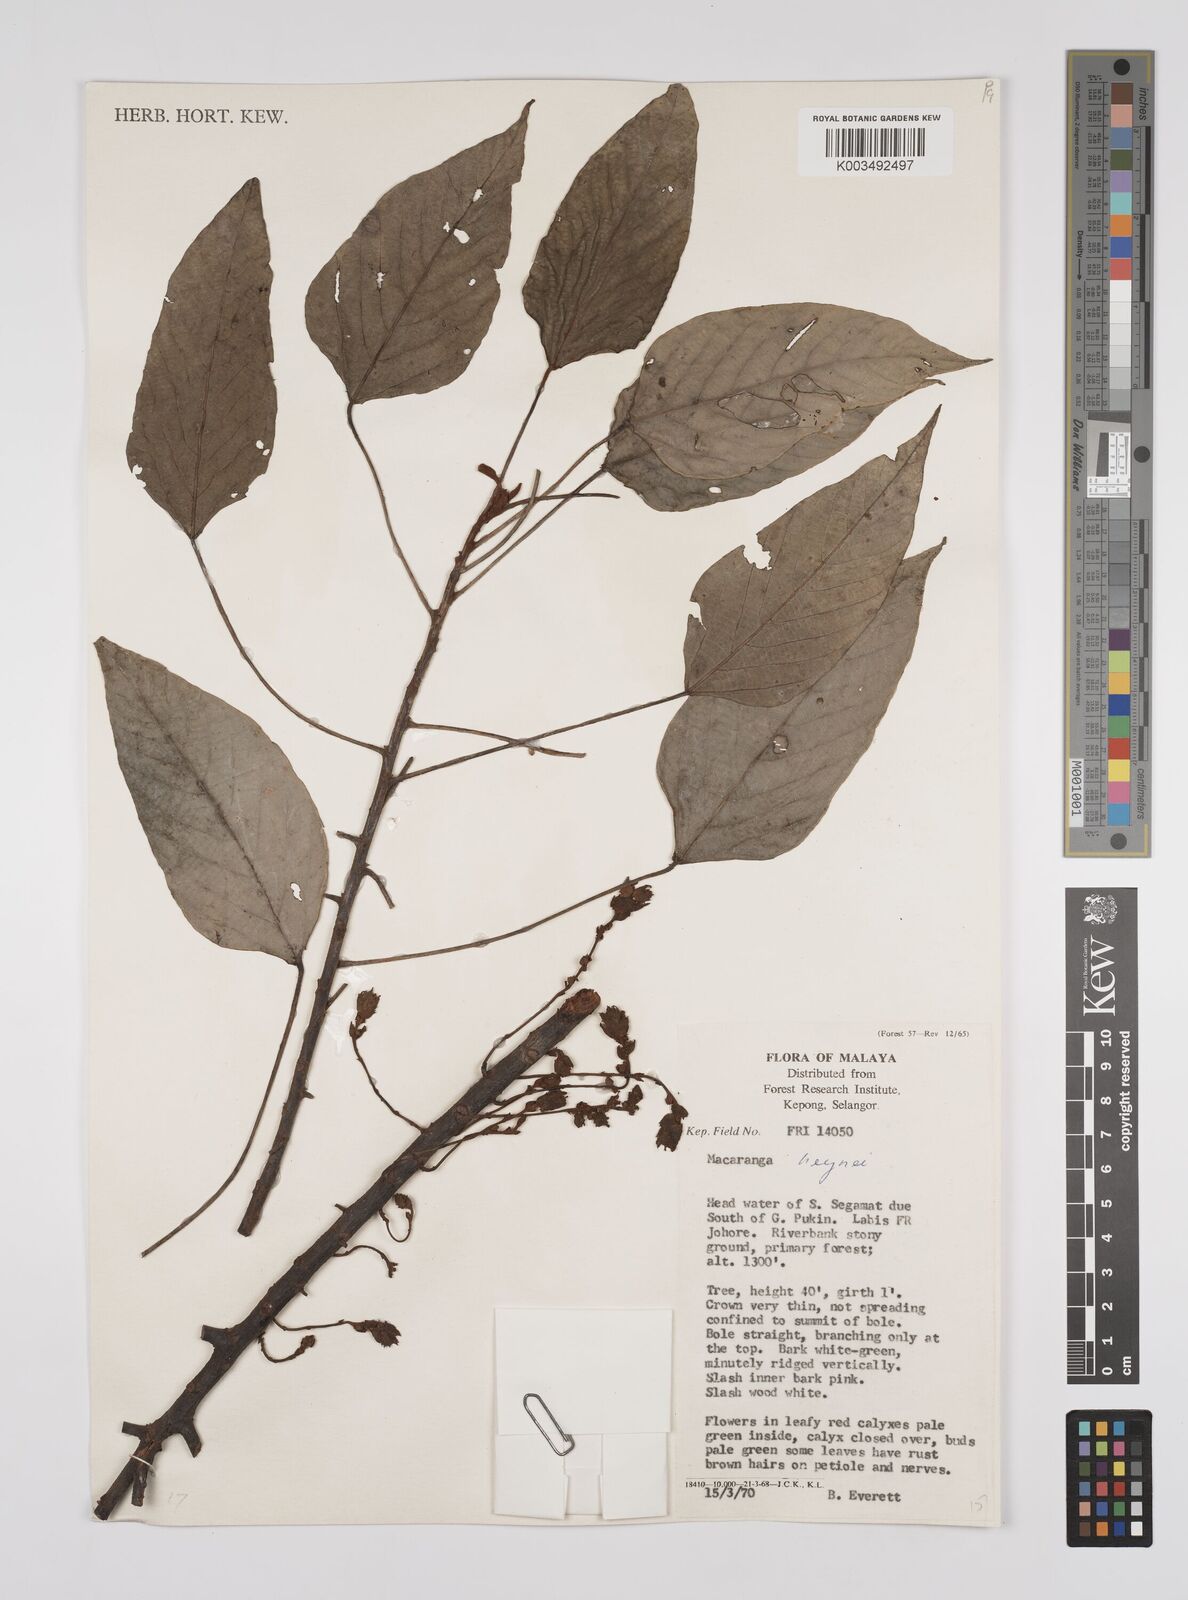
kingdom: Plantae
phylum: Tracheophyta
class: Magnoliopsida
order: Malpighiales
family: Euphorbiaceae
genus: Macaranga
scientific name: Macaranga heynei
